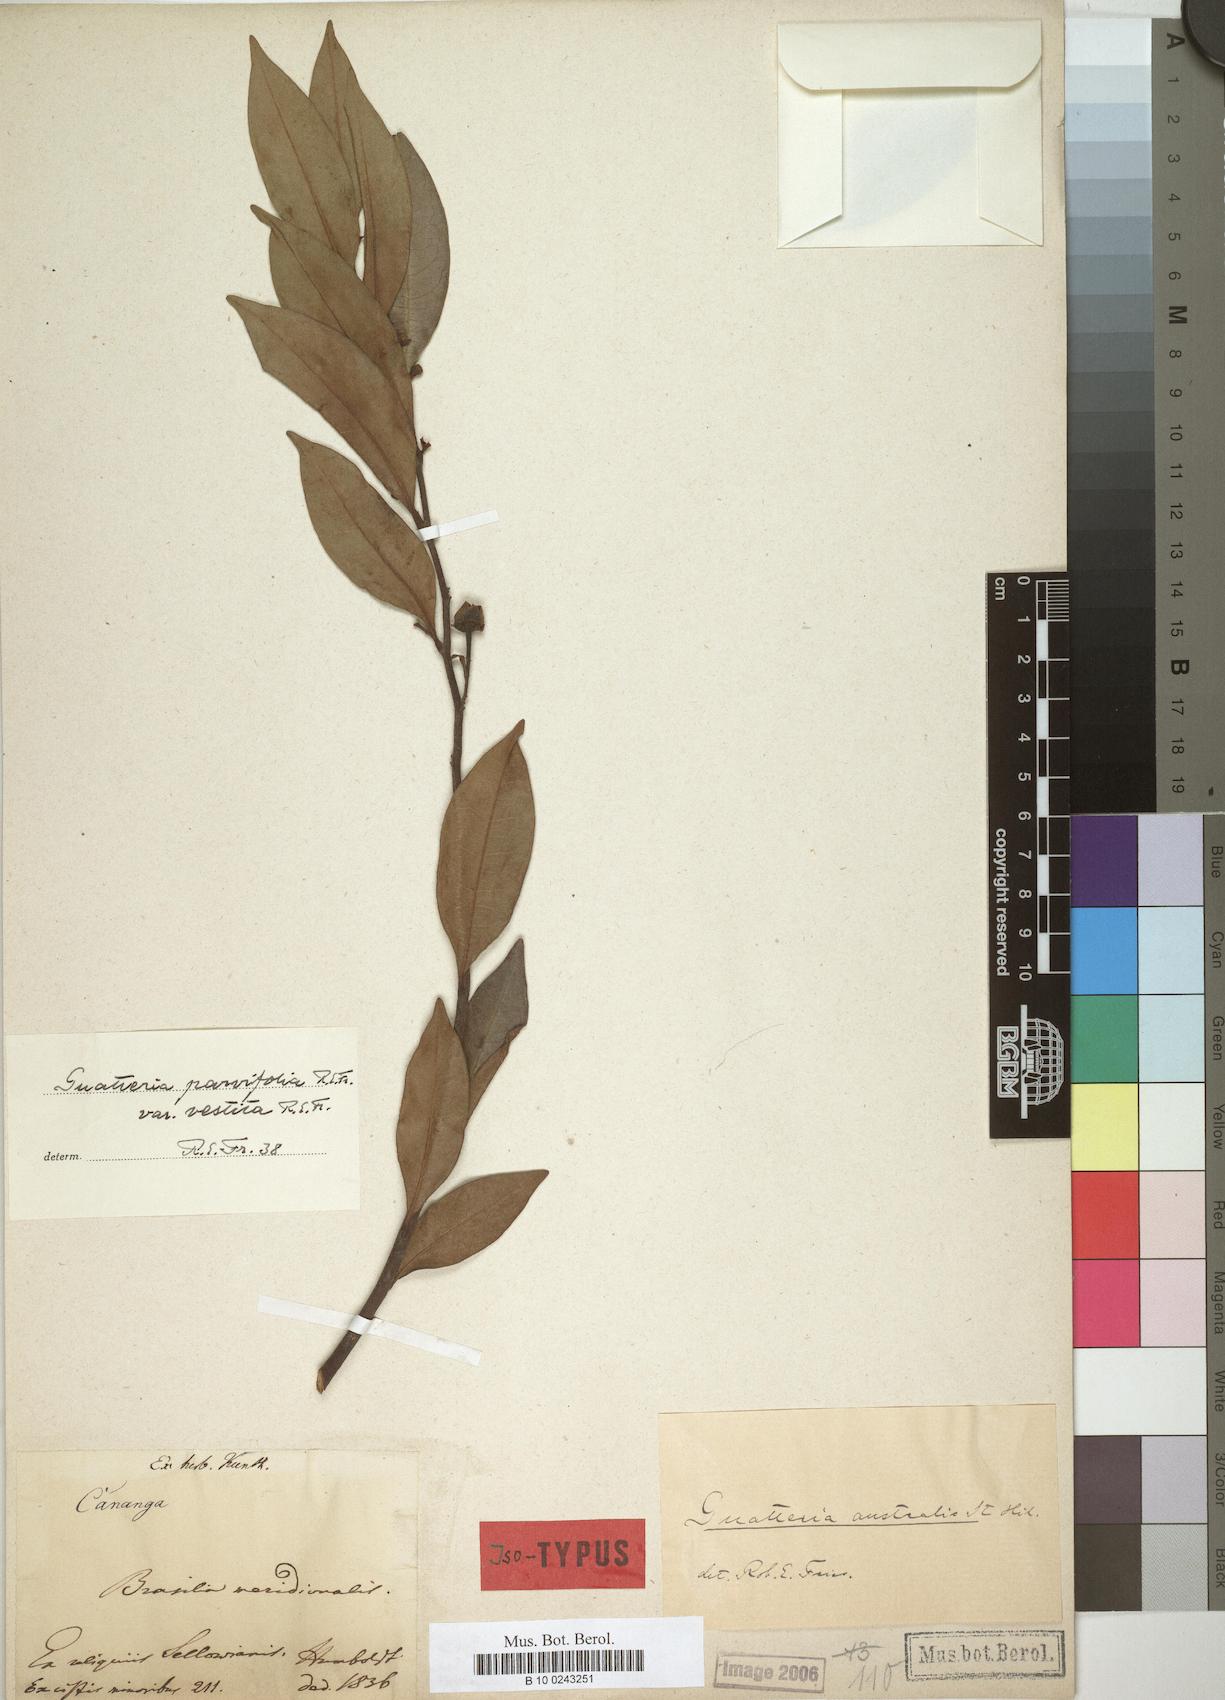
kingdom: Plantae
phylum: Tracheophyta
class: Magnoliopsida
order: Magnoliales
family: Annonaceae
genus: Guatteria
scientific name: Guatteria australis
